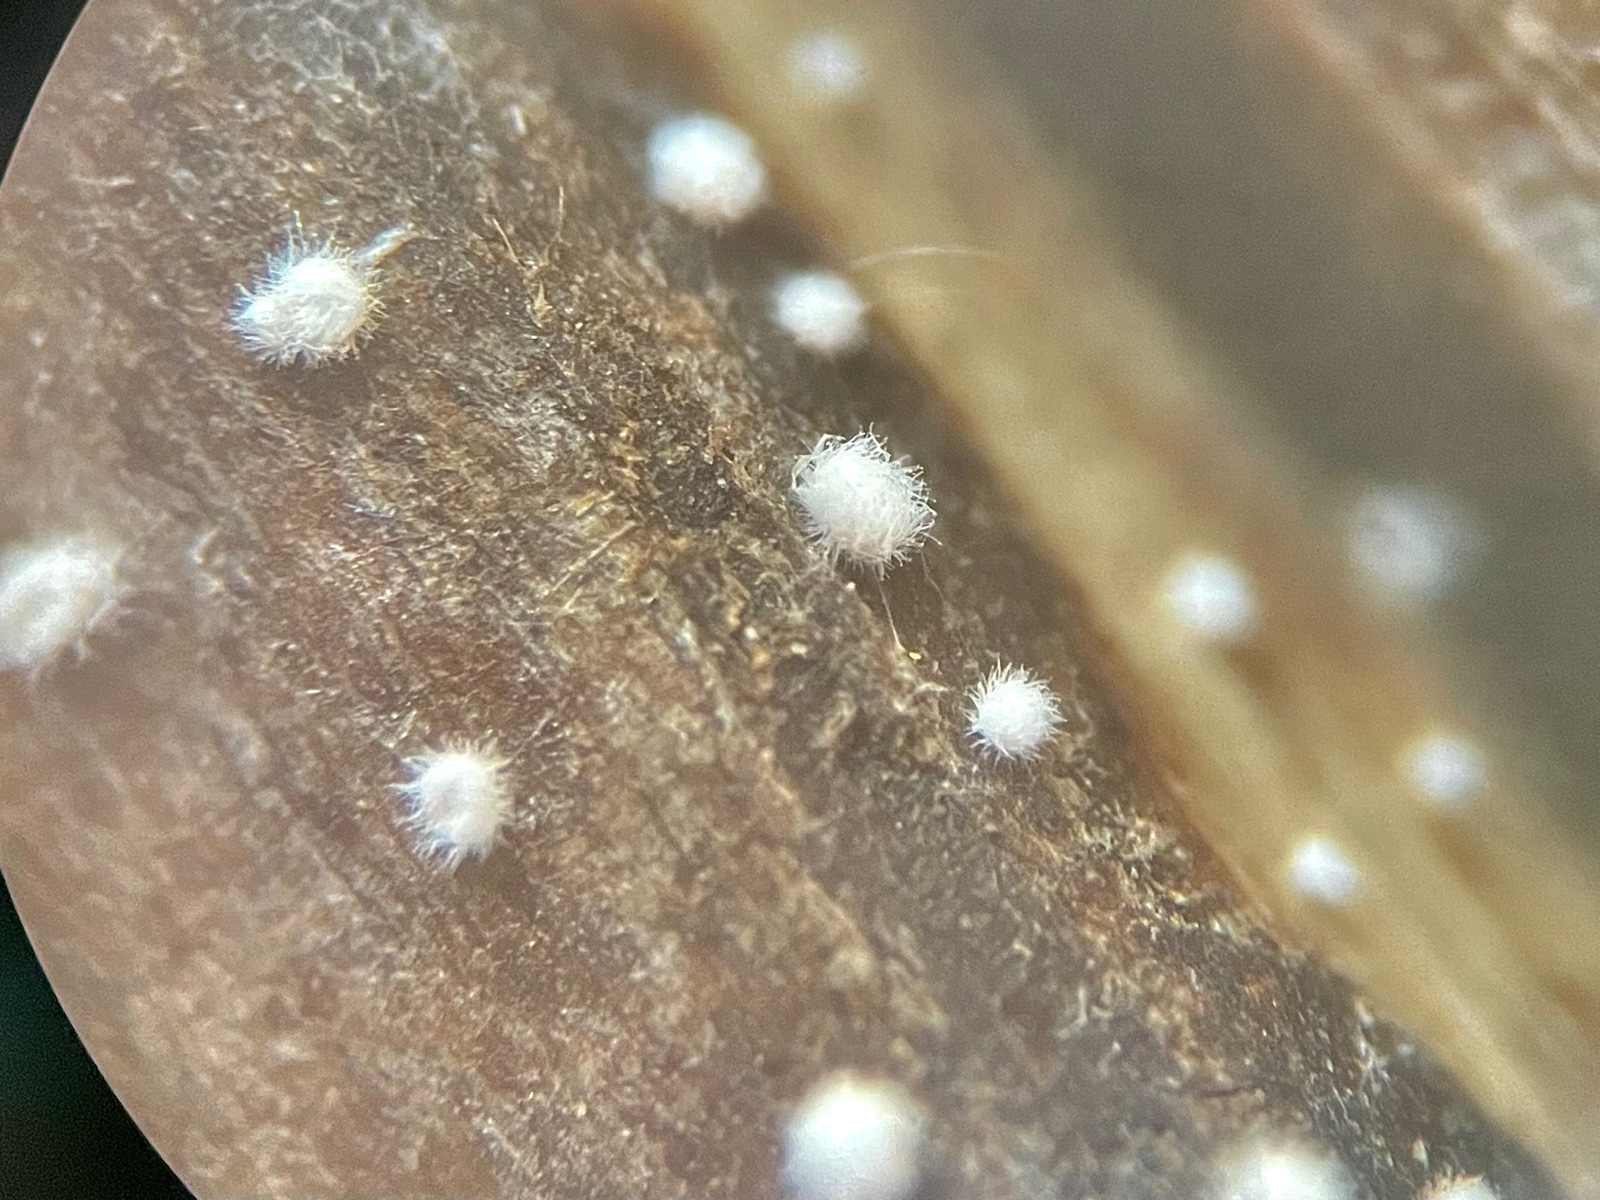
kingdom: Fungi
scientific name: Fungi
